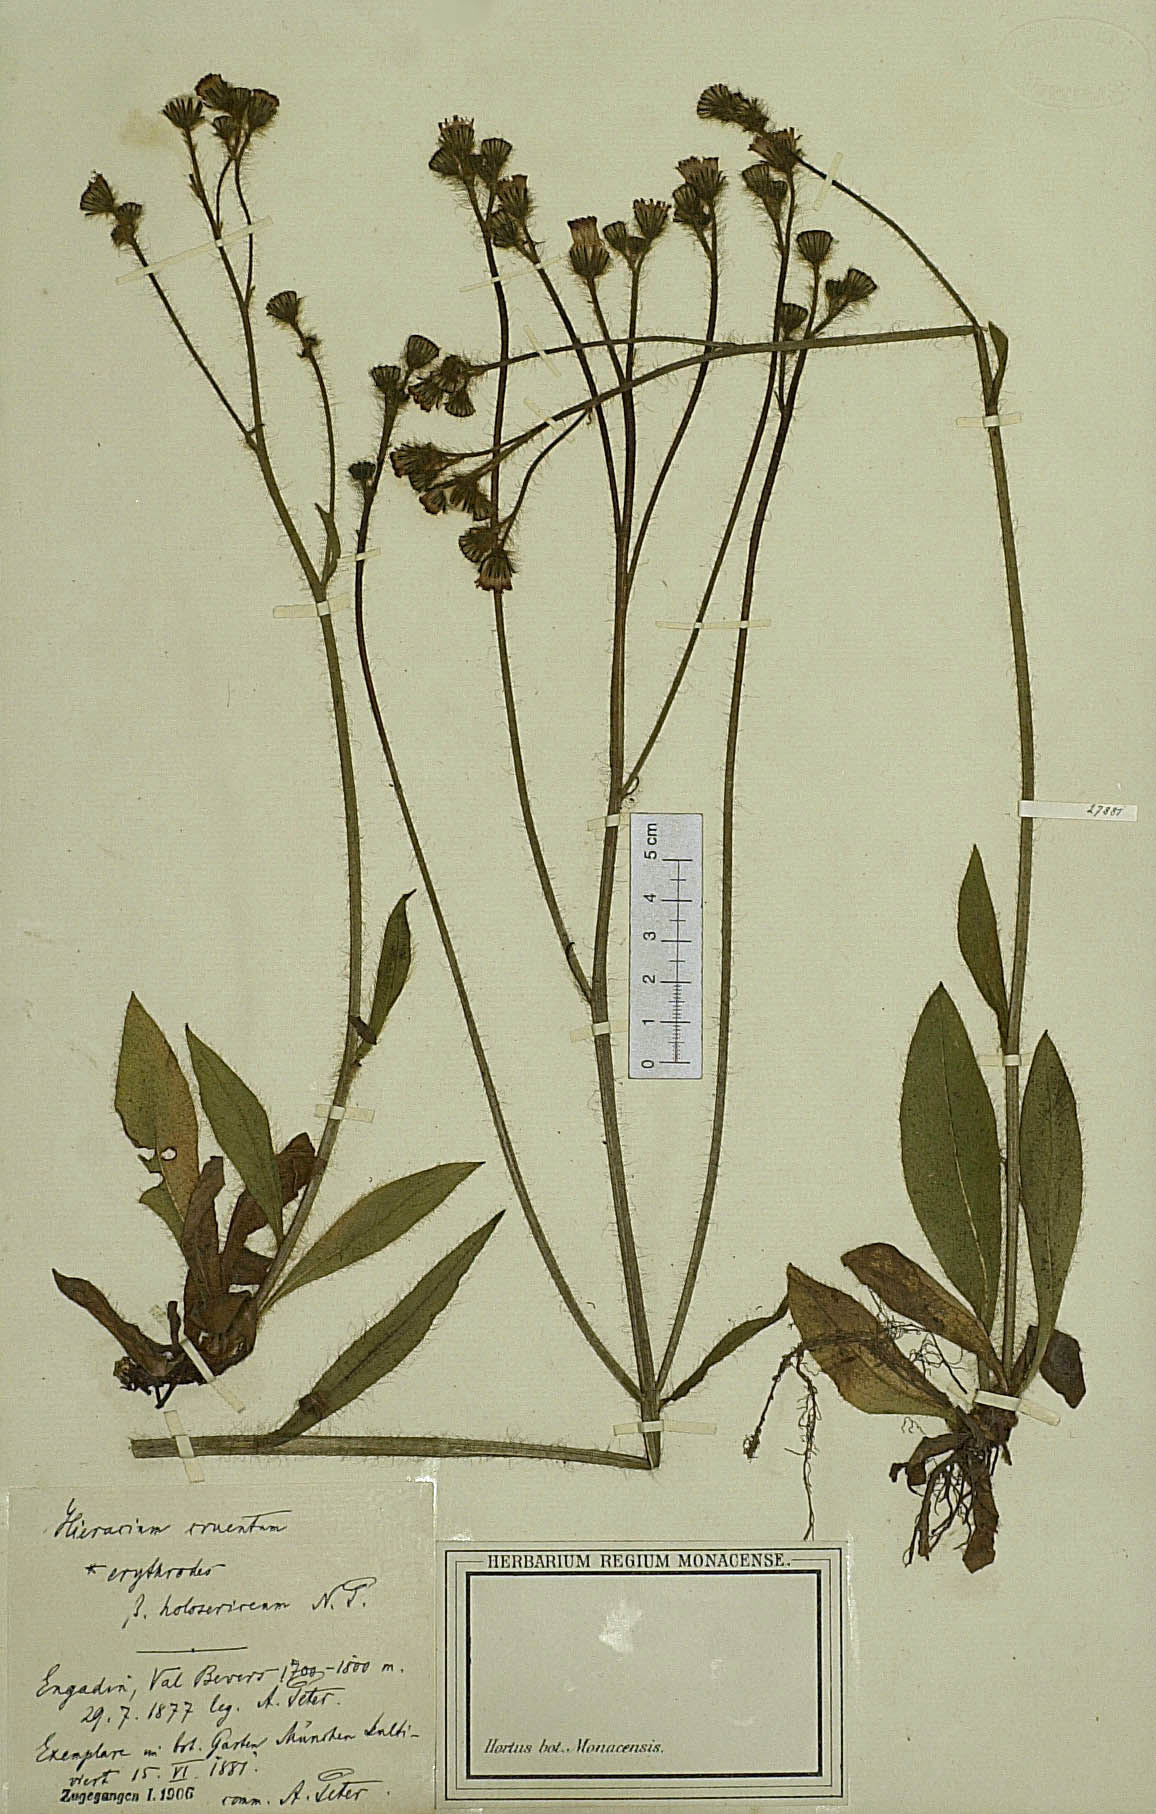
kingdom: Plantae
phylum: Tracheophyta
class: Magnoliopsida
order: Asterales
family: Asteraceae
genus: Pilosella
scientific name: Pilosella guthnikiana
